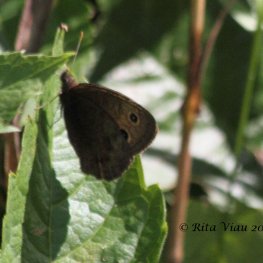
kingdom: Animalia
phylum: Arthropoda
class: Insecta
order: Lepidoptera
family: Nymphalidae
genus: Cercyonis
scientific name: Cercyonis pegala
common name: Common Wood-Nymph
